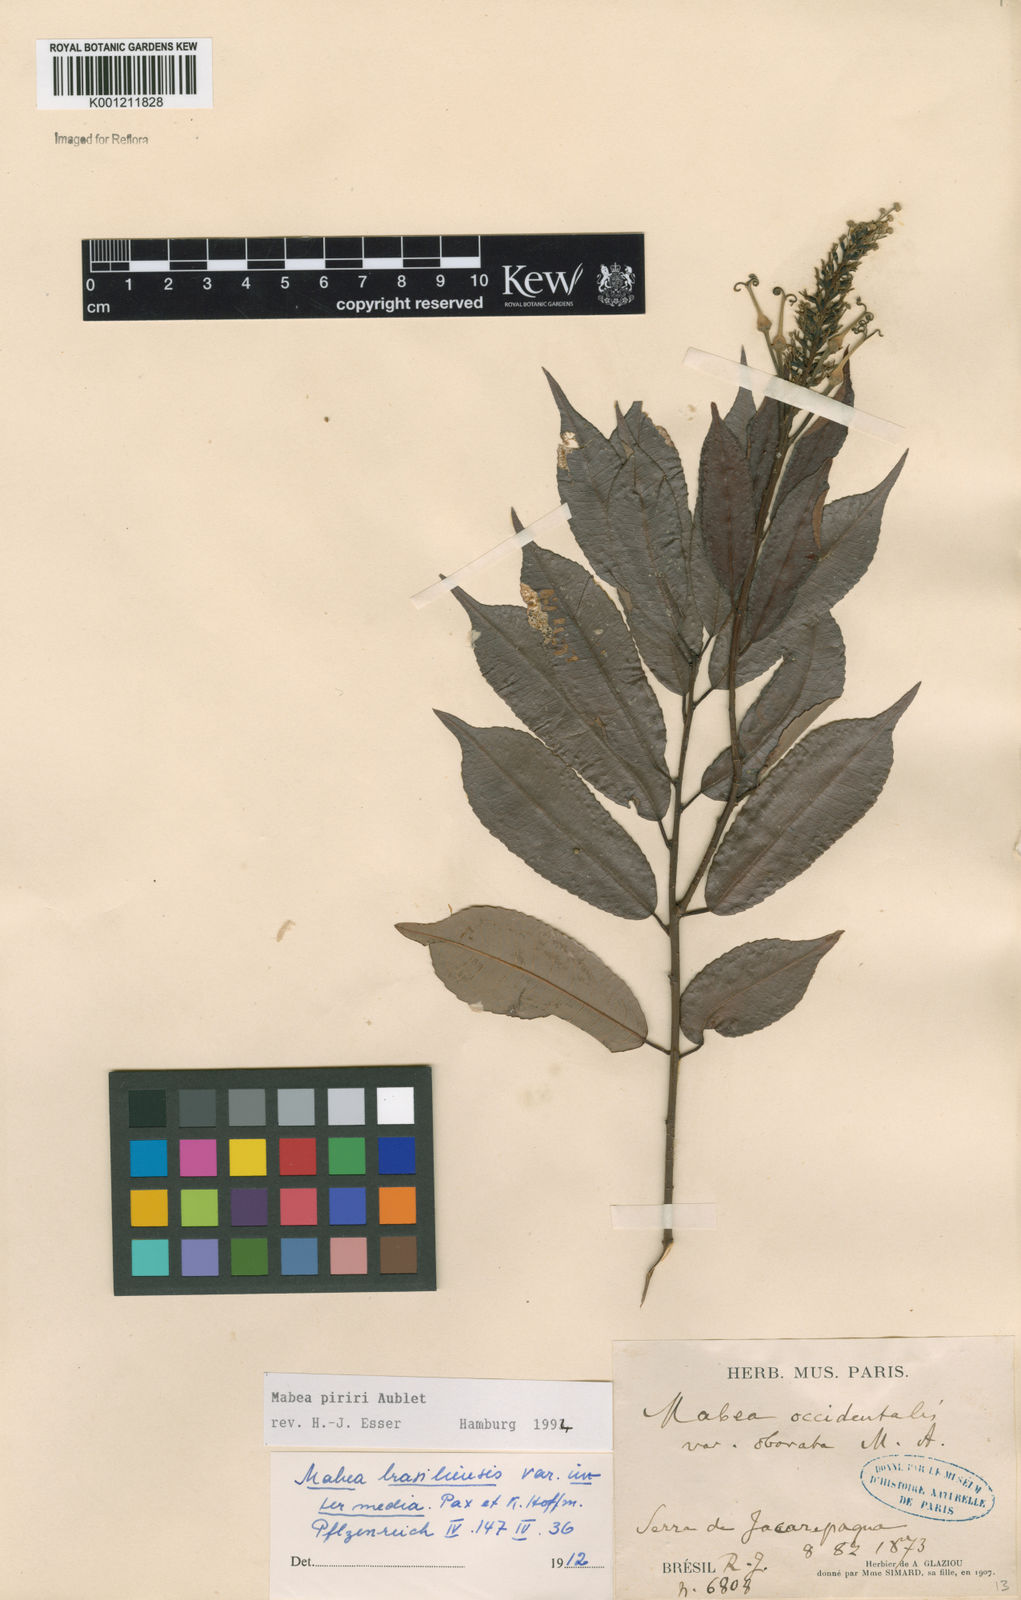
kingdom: Plantae
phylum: Tracheophyta
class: Magnoliopsida
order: Malpighiales
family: Euphorbiaceae
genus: Mabea
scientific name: Mabea piriri
